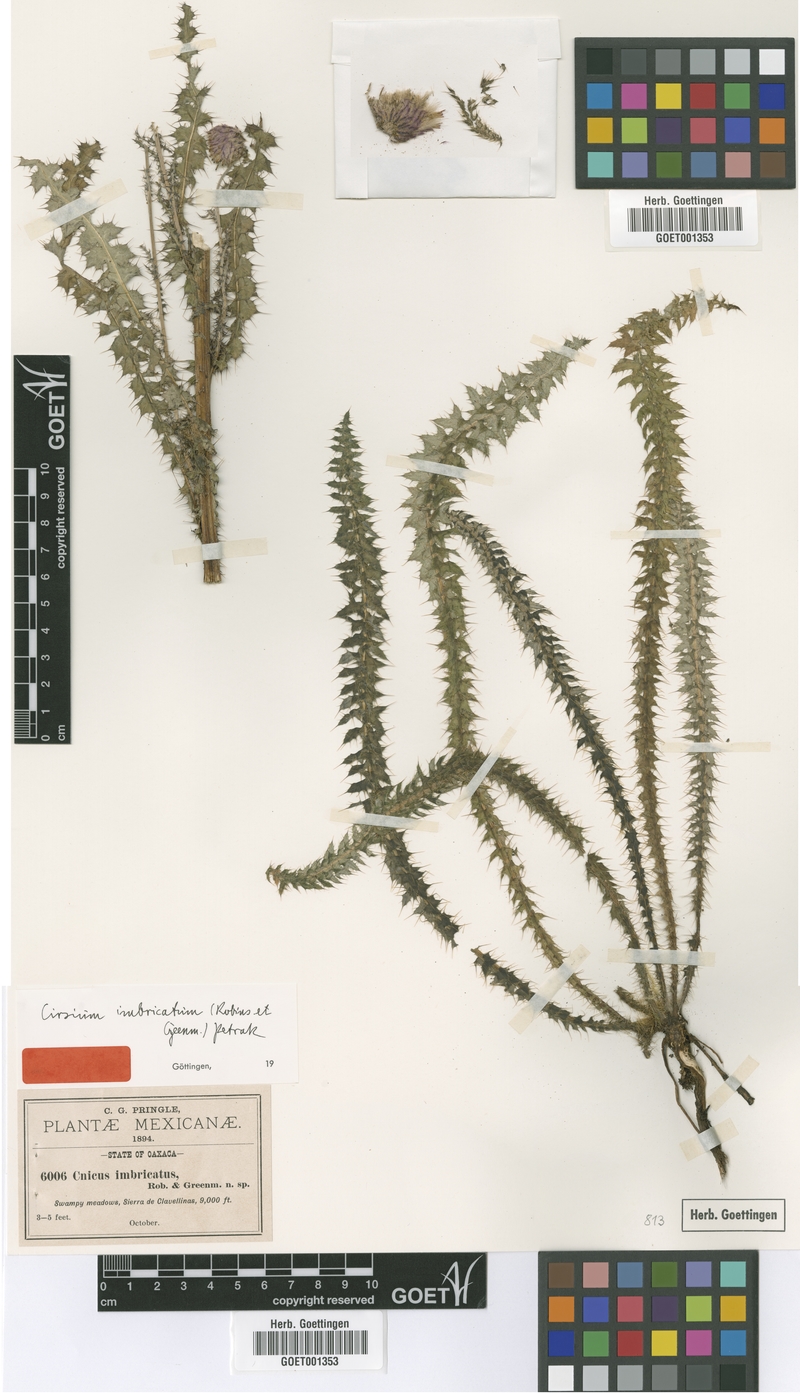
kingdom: Plantae
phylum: Tracheophyta
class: Magnoliopsida
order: Asterales
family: Asteraceae
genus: Cirsium
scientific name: Cirsium imbricatum
